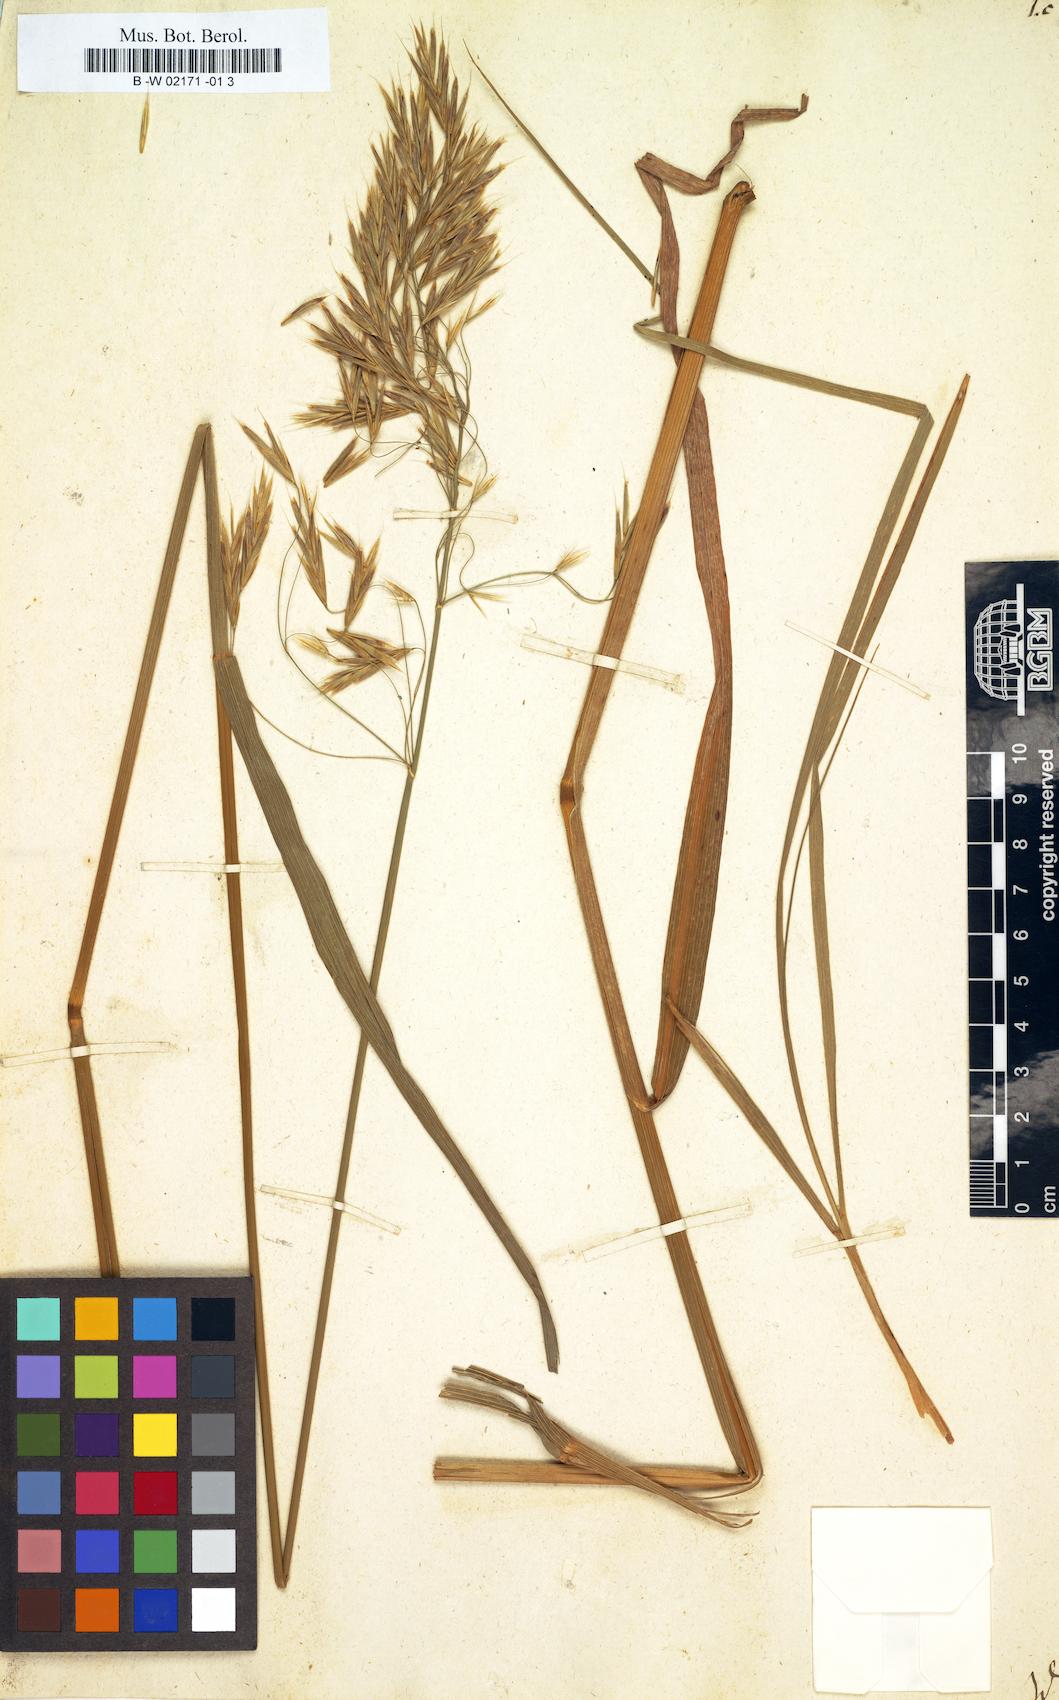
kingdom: Plantae
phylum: Tracheophyta
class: Liliopsida
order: Poales
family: Poaceae
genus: Bromus
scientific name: Bromus inermis
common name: Smooth brome
